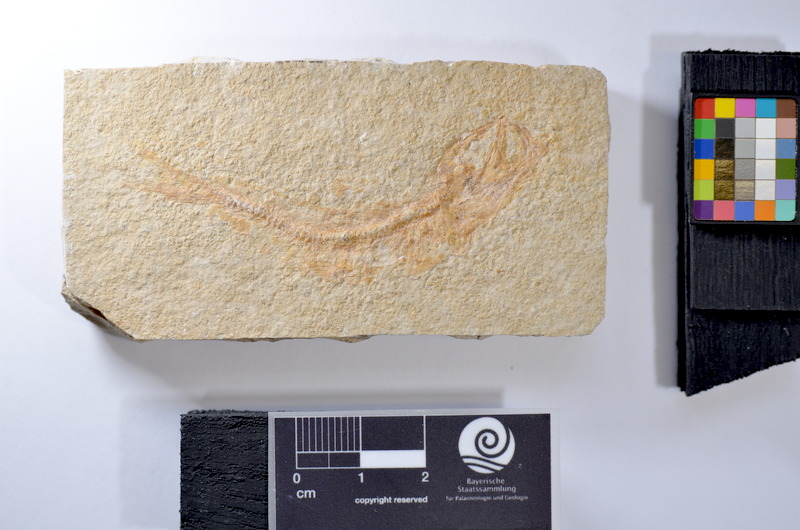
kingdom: Animalia
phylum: Chordata
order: Salmoniformes
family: Orthogonikleithridae
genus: Leptolepides
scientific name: Leptolepides sprattiformis
